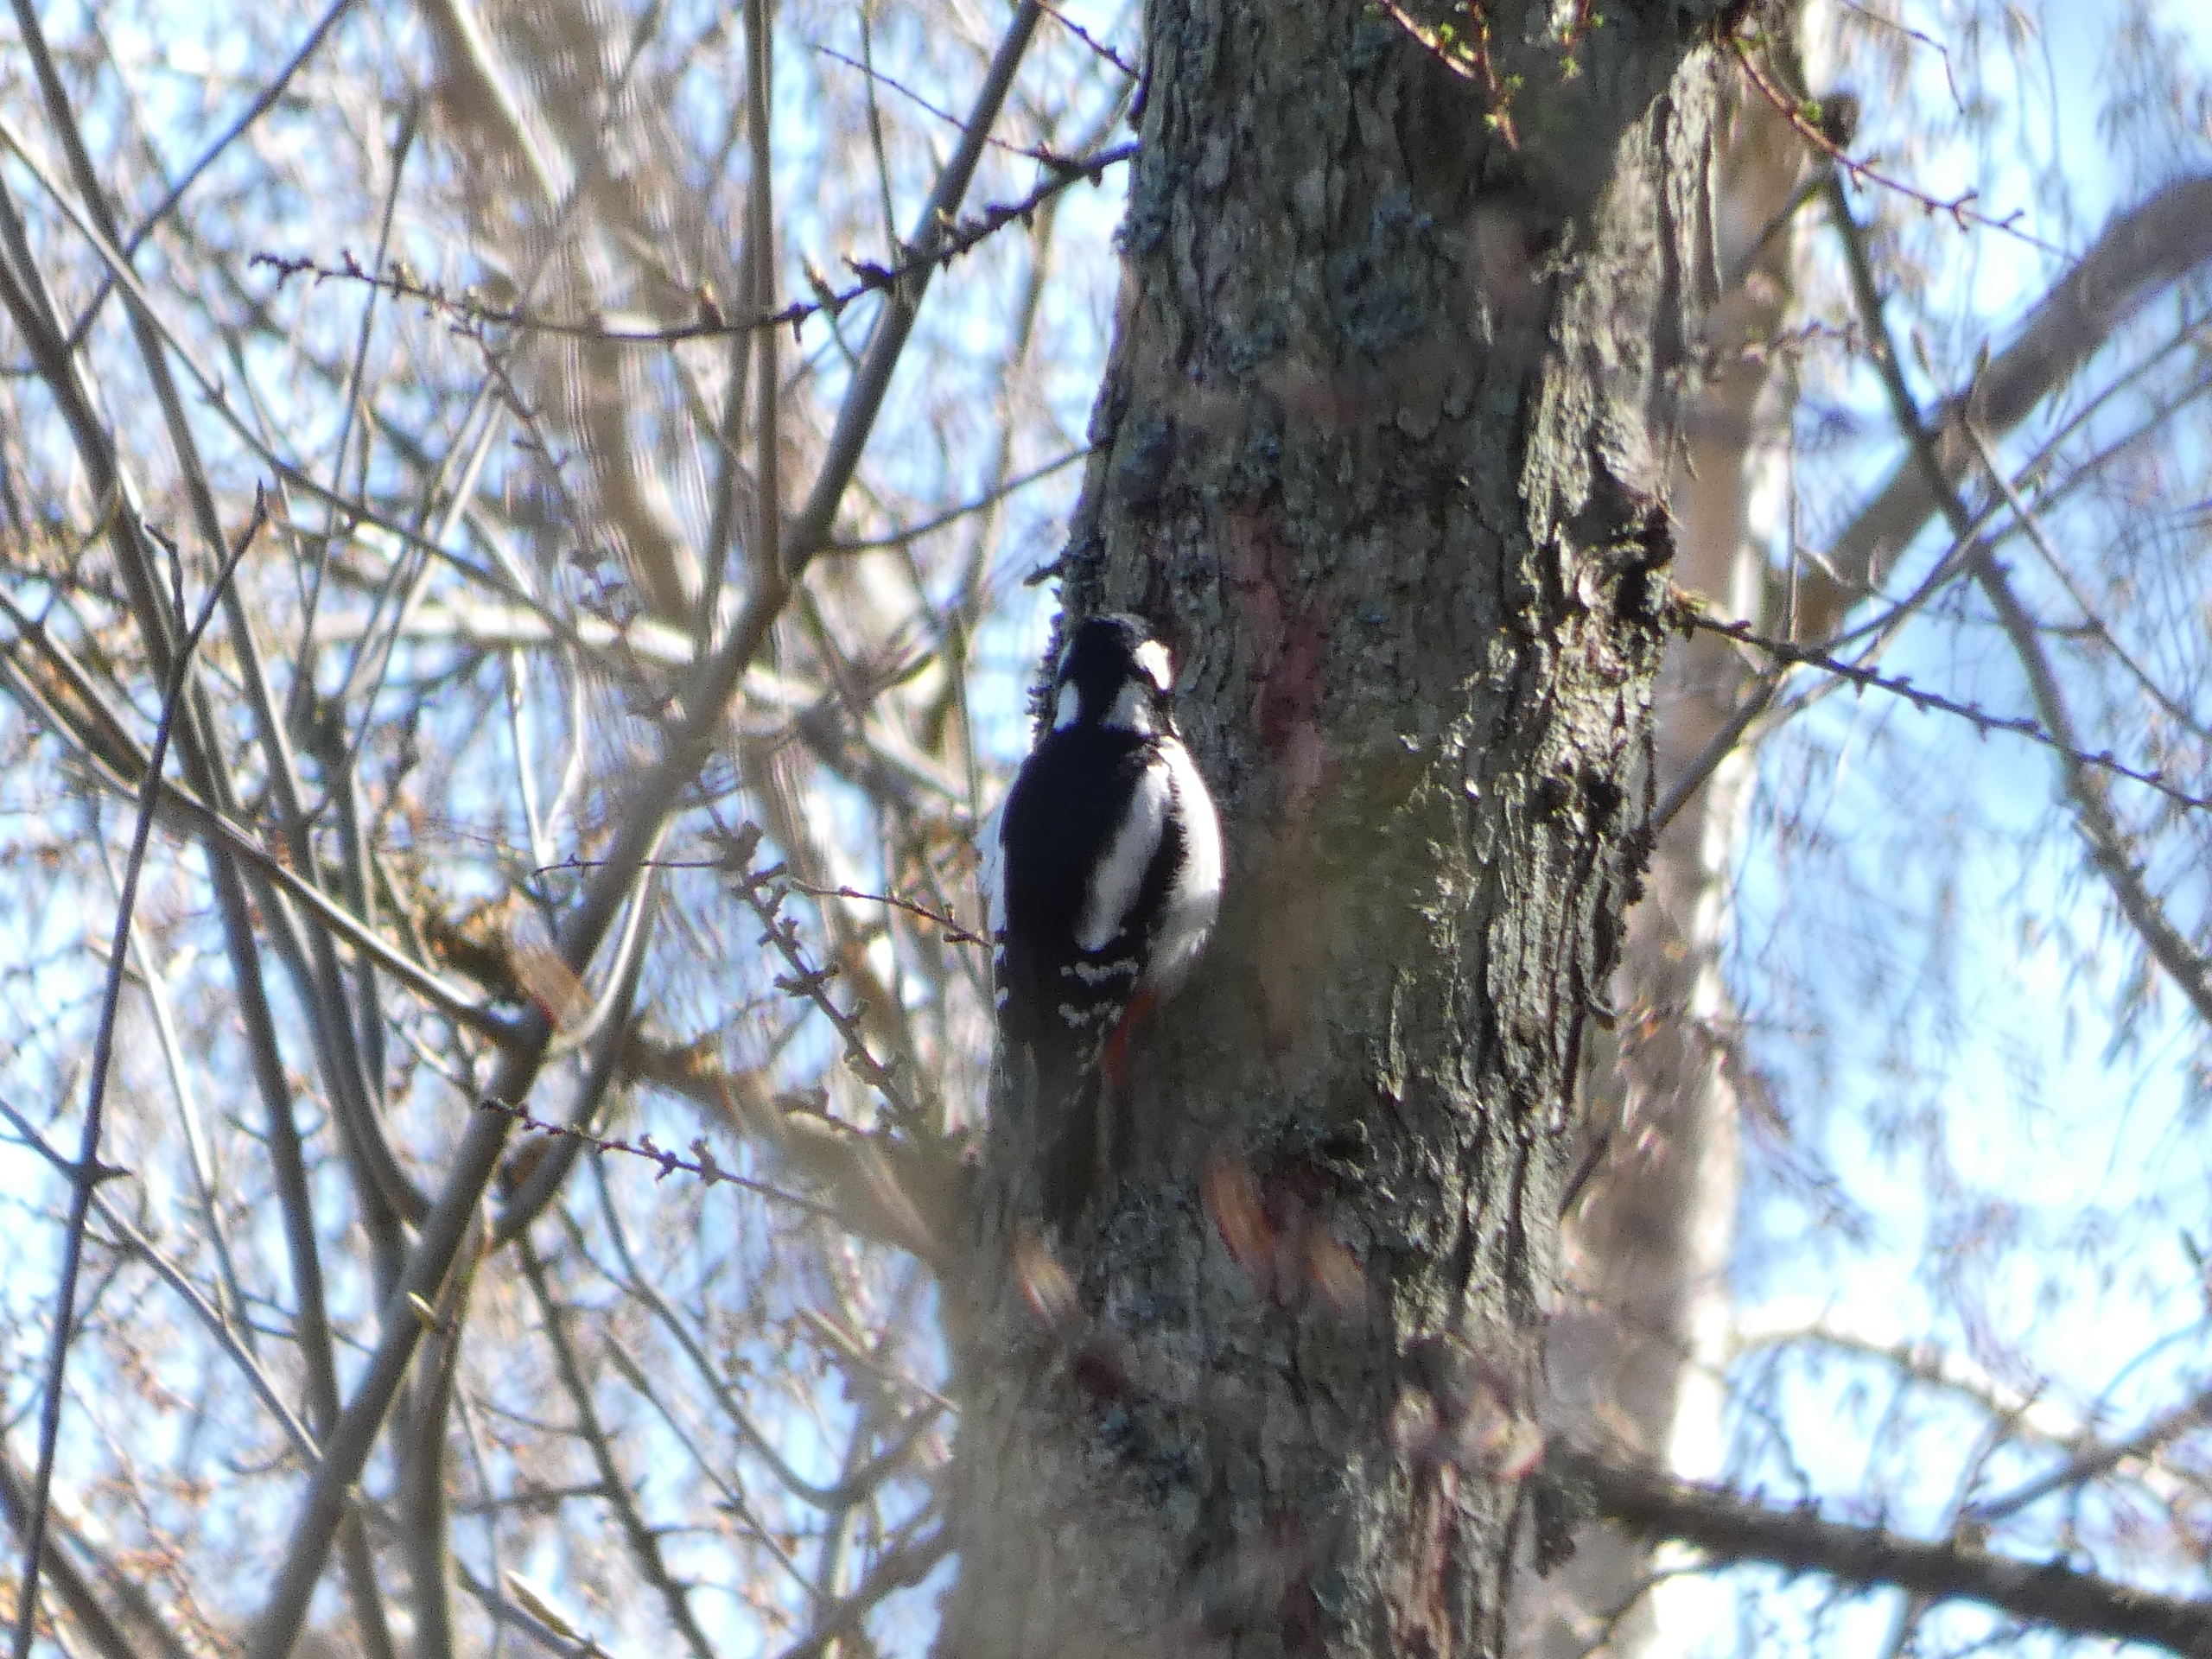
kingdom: Animalia
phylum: Chordata
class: Aves
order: Piciformes
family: Picidae
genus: Dendrocopos
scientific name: Dendrocopos major
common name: Stor flagspætte
